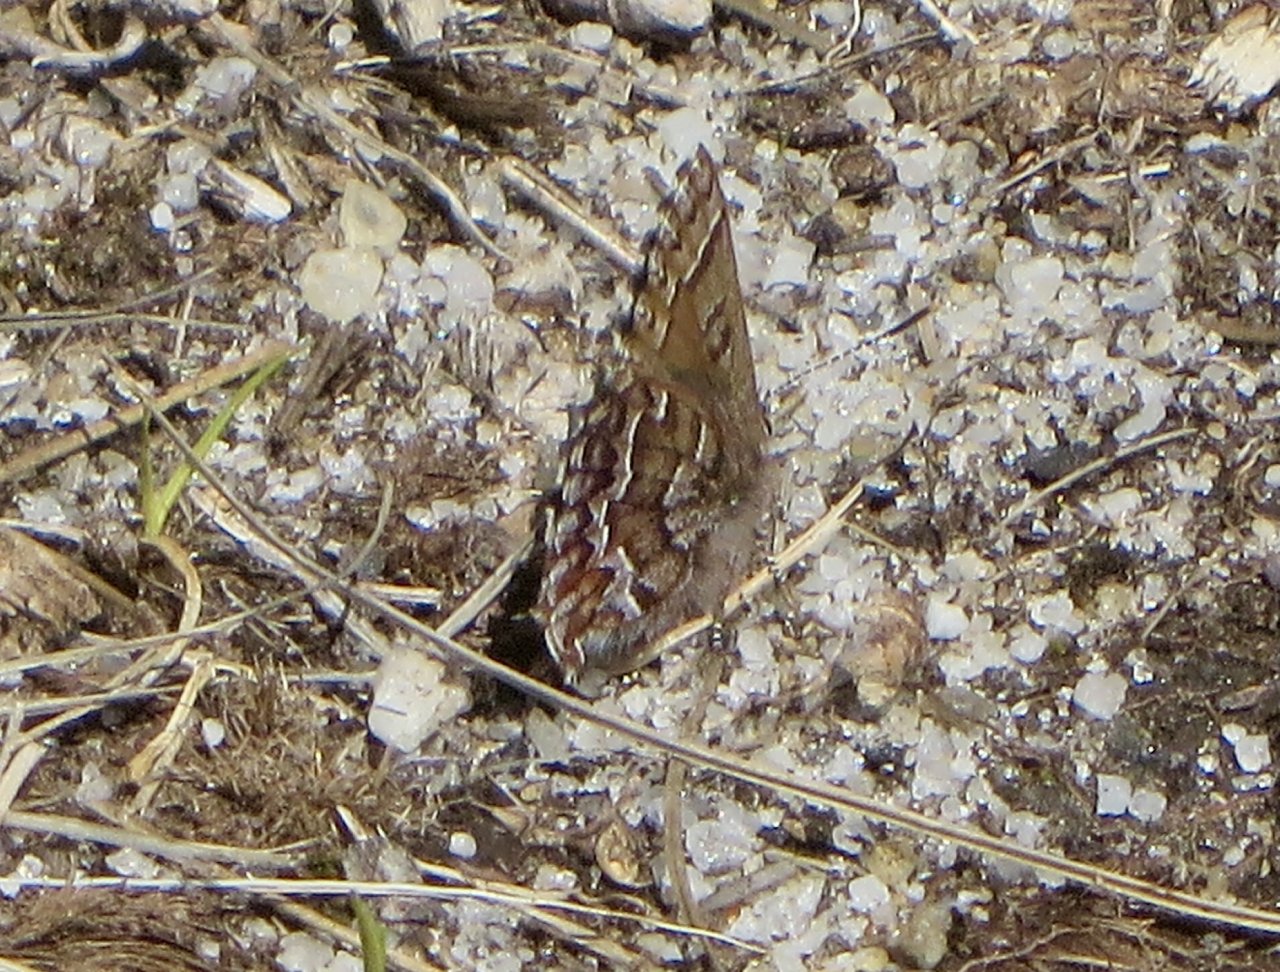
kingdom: Animalia
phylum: Arthropoda
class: Insecta
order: Lepidoptera
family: Lycaenidae
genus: Incisalia
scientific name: Incisalia niphon
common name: Eastern Pine Elfin
